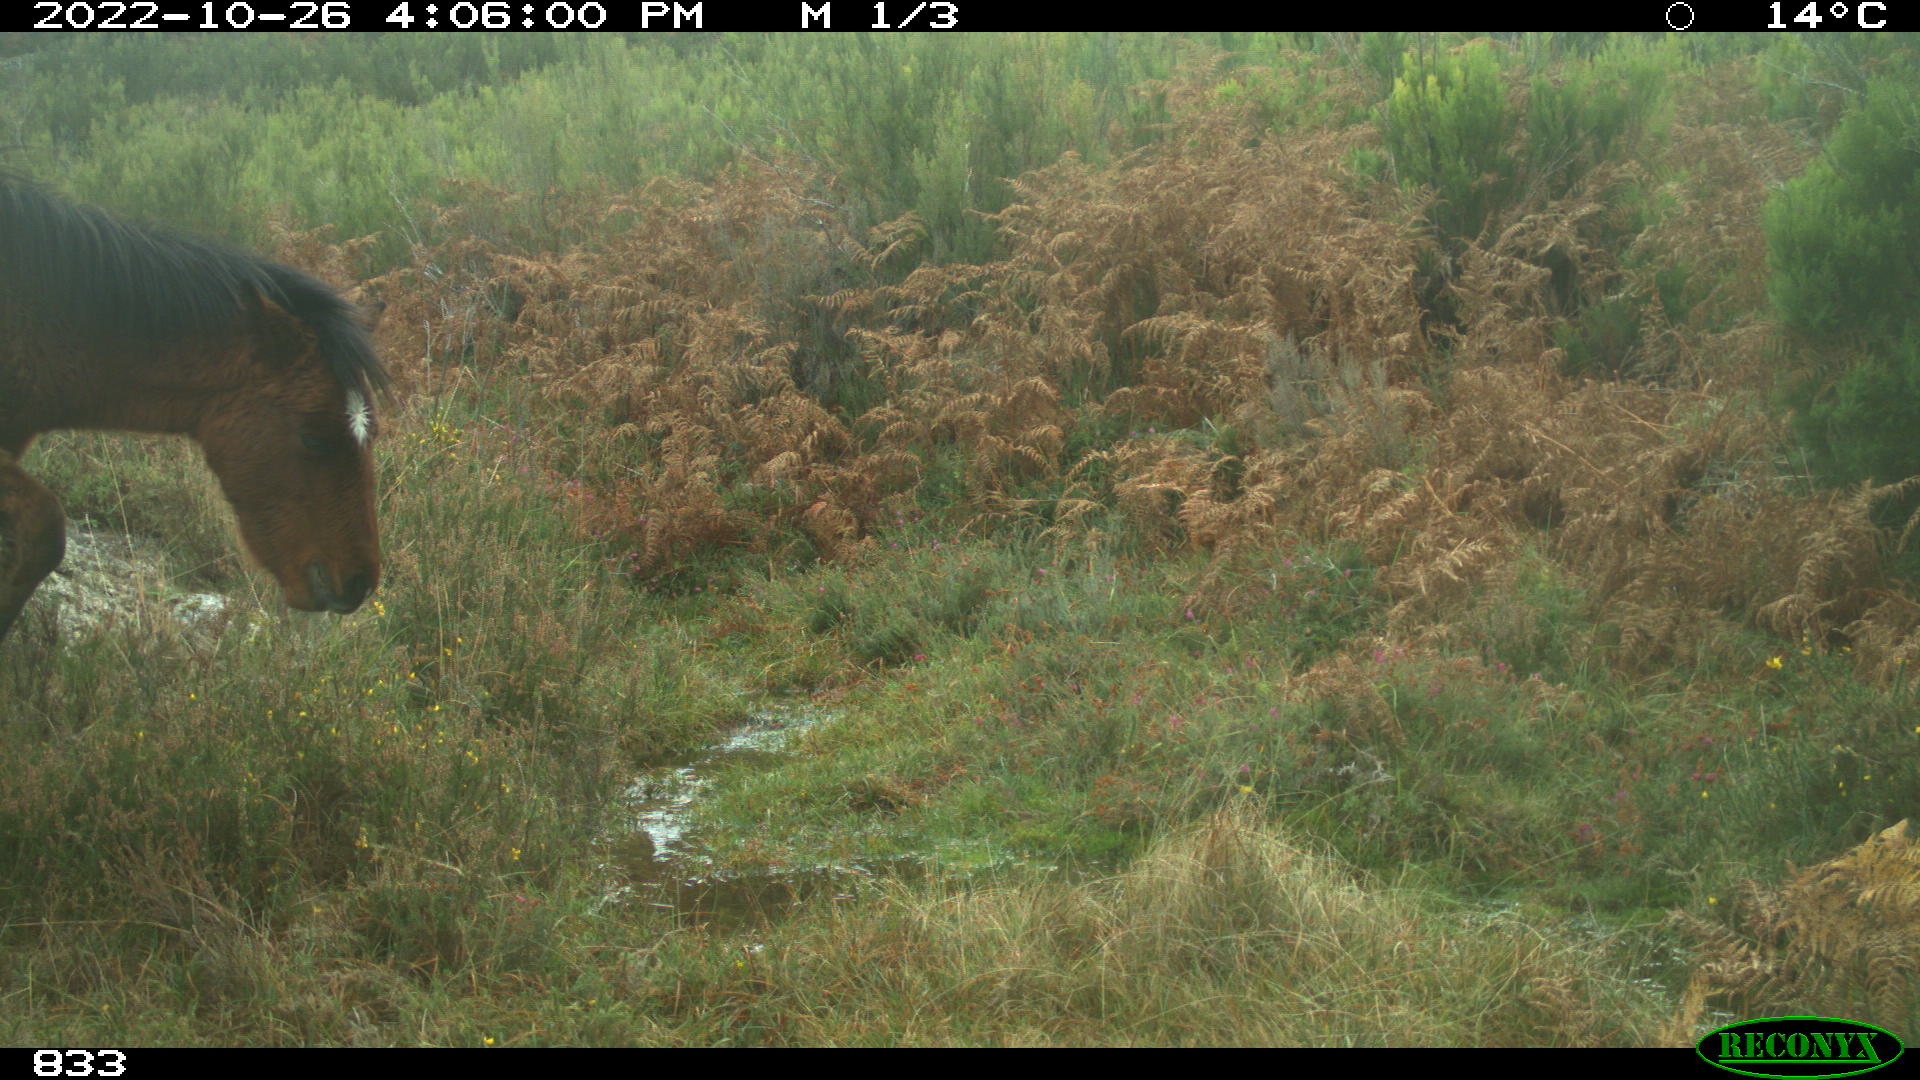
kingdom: Animalia
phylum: Chordata
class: Mammalia
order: Perissodactyla
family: Equidae
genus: Equus
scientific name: Equus caballus
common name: Horse
